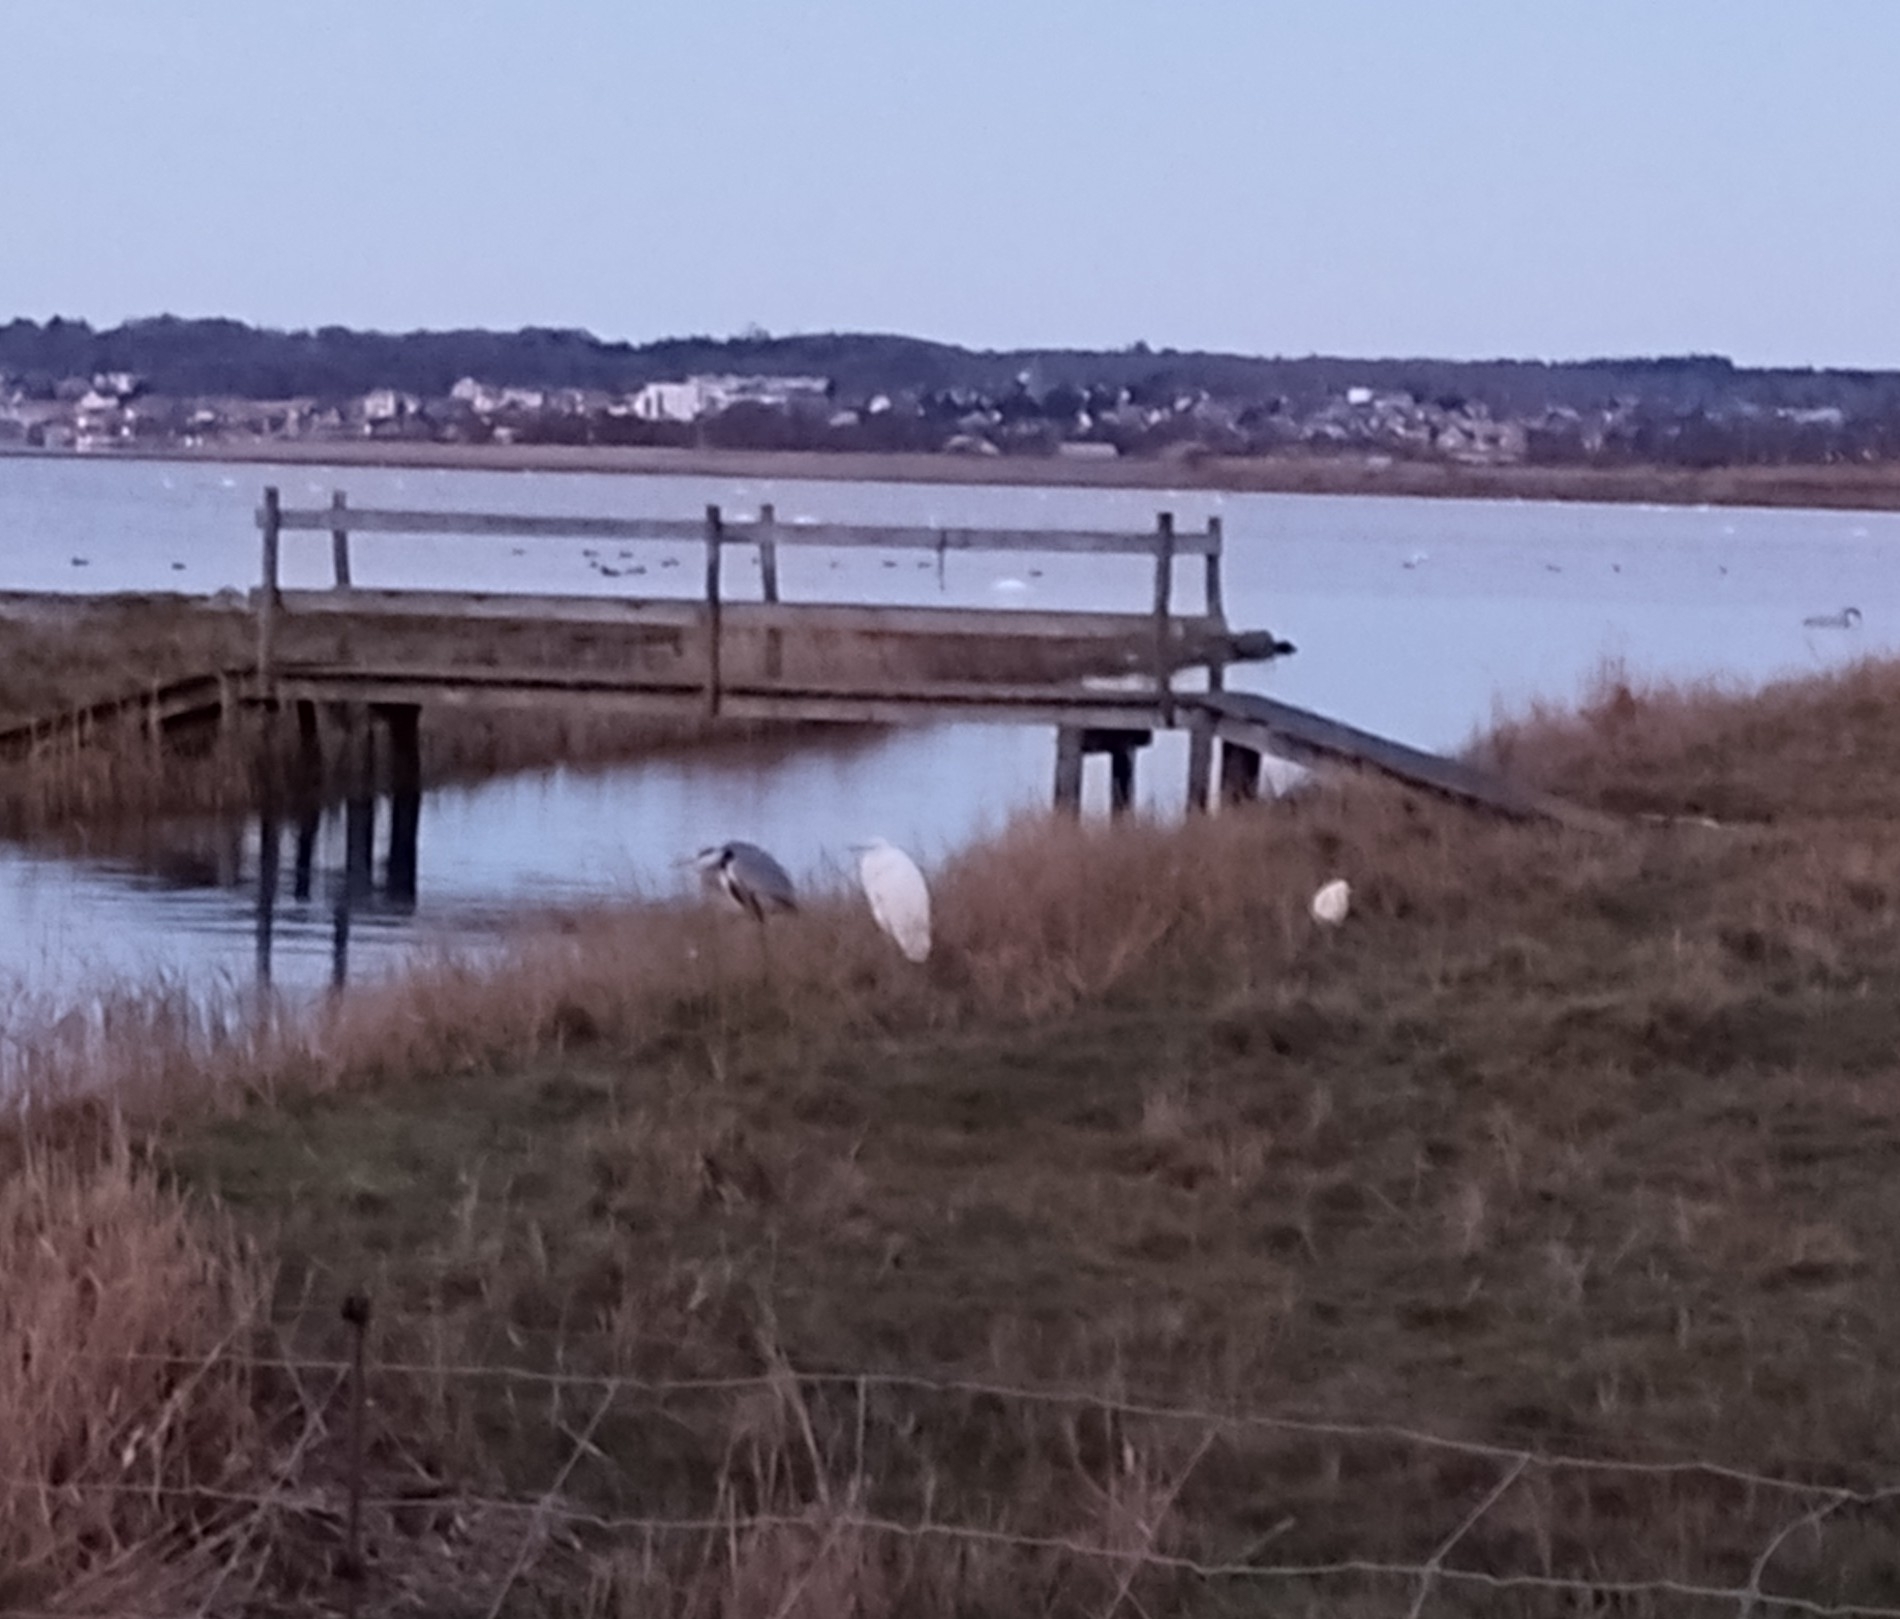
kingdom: Animalia
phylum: Chordata
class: Aves
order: Pelecaniformes
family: Ardeidae
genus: Ardea
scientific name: Ardea cinerea
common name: Fiskehejre
